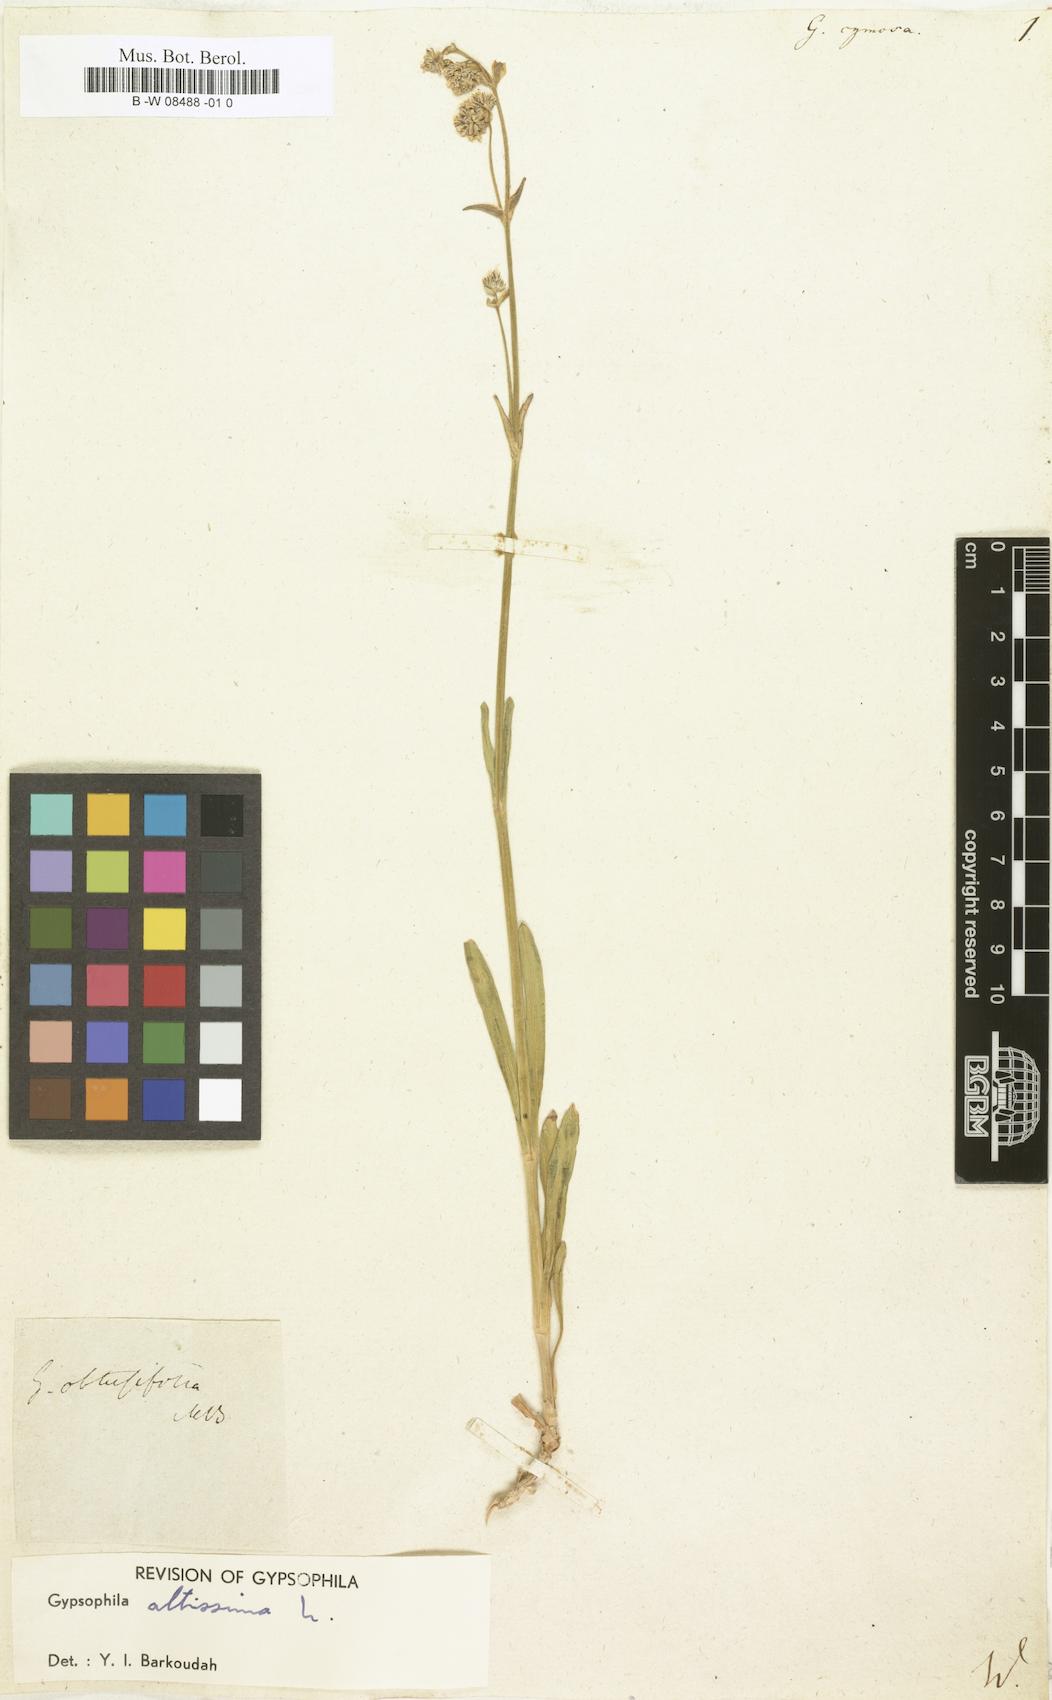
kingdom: Plantae
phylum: Tracheophyta
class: Magnoliopsida
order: Caryophyllales
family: Caryophyllaceae
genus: Gypsophila
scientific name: Gypsophila
